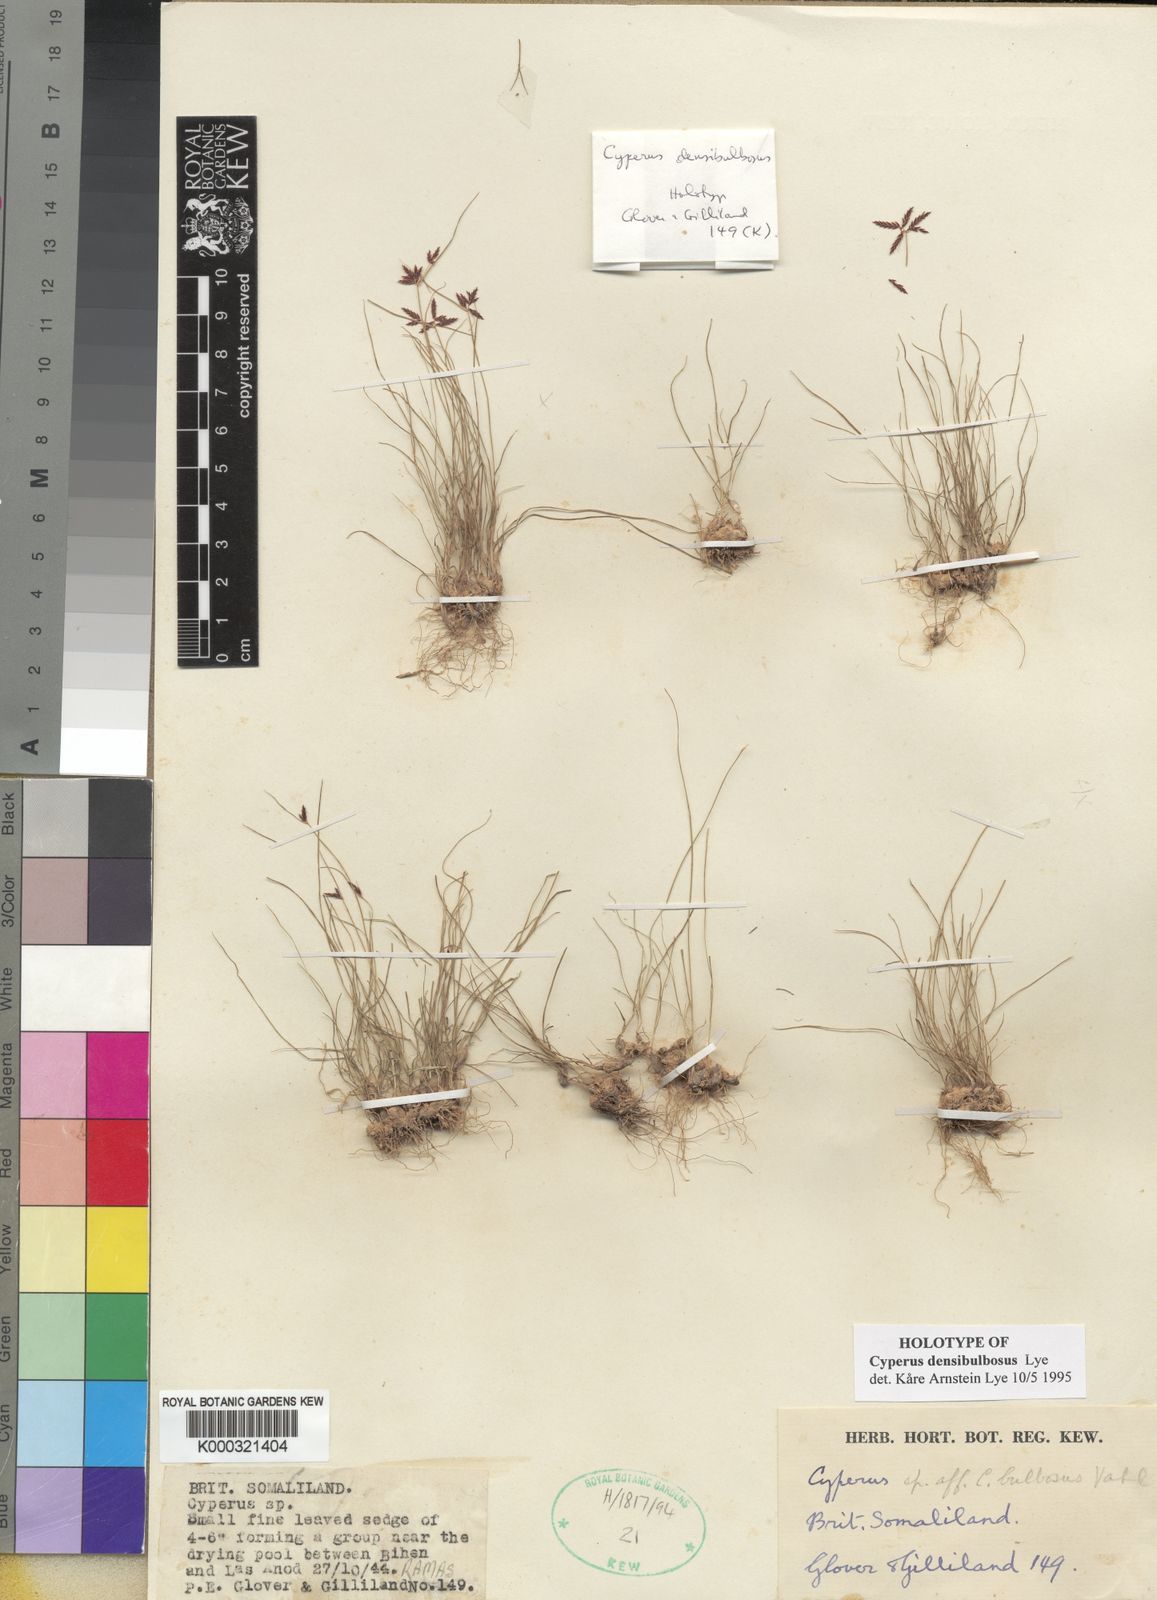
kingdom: Plantae
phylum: Tracheophyta
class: Liliopsida
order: Poales
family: Cyperaceae
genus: Cyperus
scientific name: Cyperus densibulbosus
